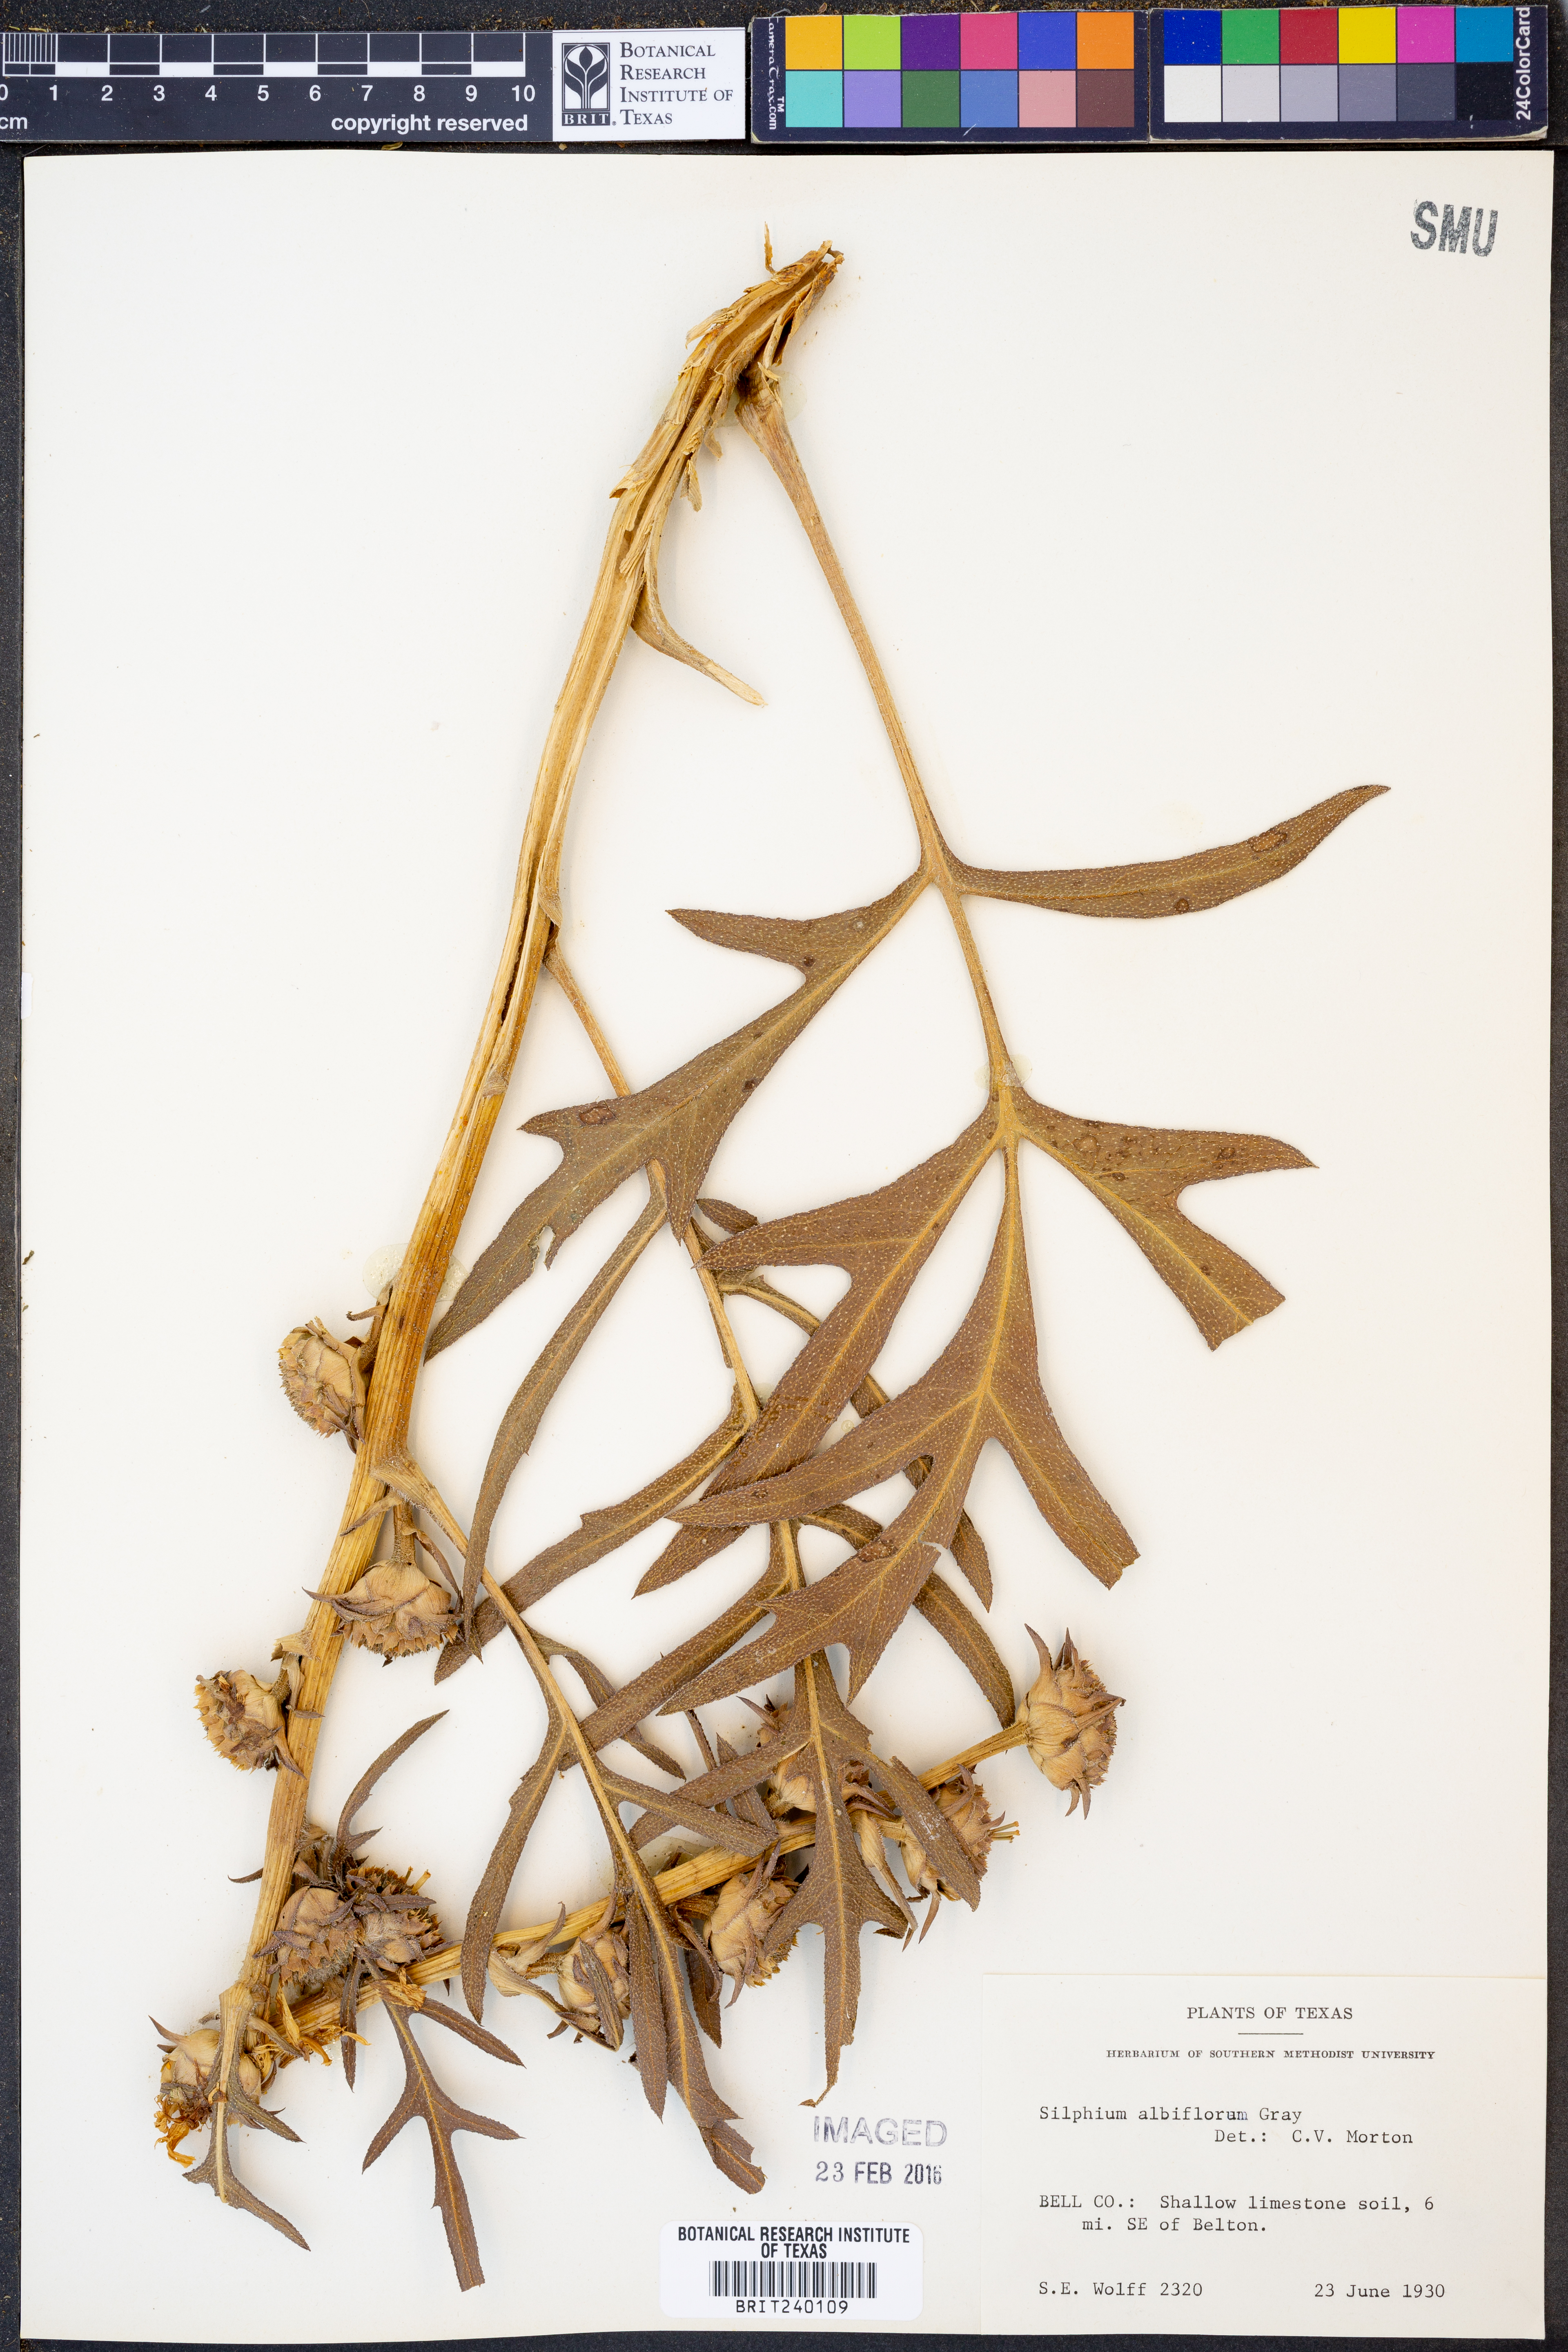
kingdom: Plantae
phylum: Tracheophyta
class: Magnoliopsida
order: Asterales
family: Asteraceae
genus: Silphium
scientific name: Silphium albiflorum
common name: White rosinweed
